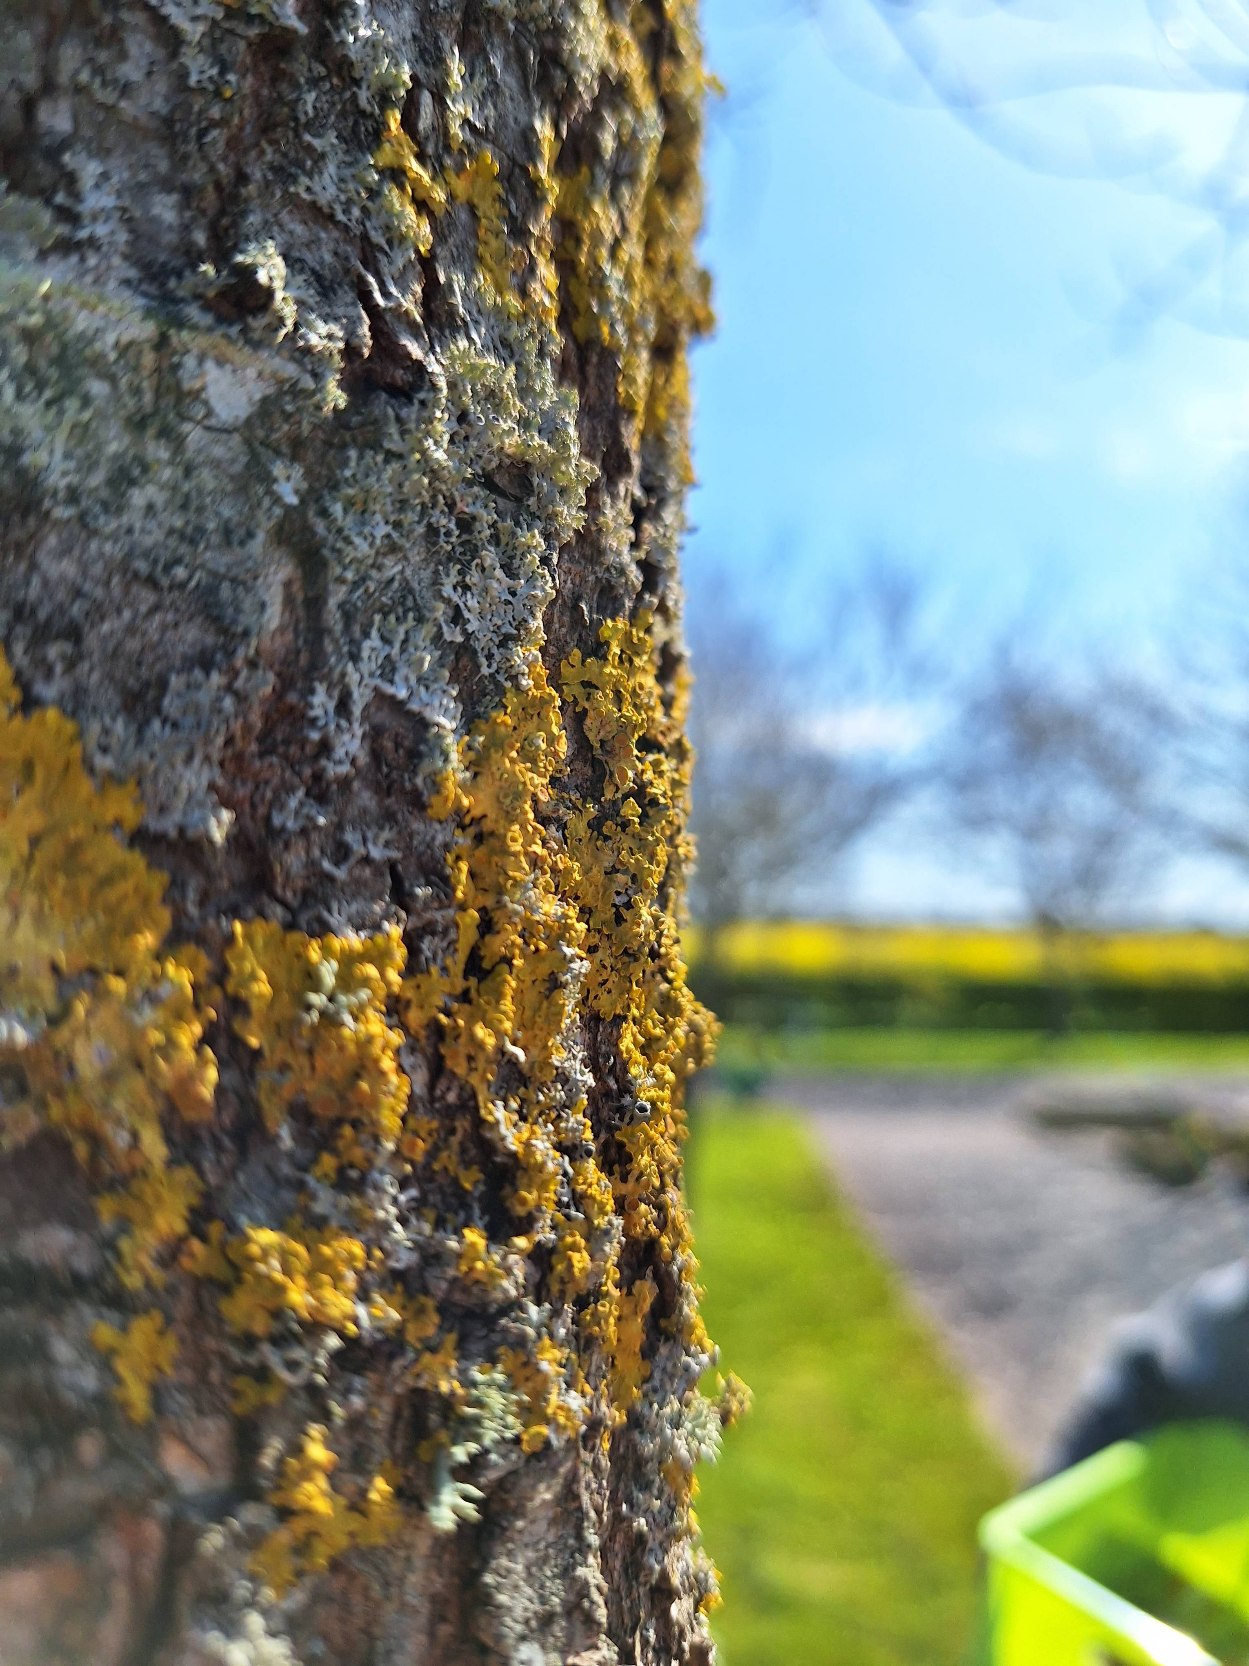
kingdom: Fungi
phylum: Ascomycota
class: Lecanoromycetes
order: Teloschistales
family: Teloschistaceae
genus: Xanthoria
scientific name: Xanthoria parietina
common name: Almindelig væggelav
